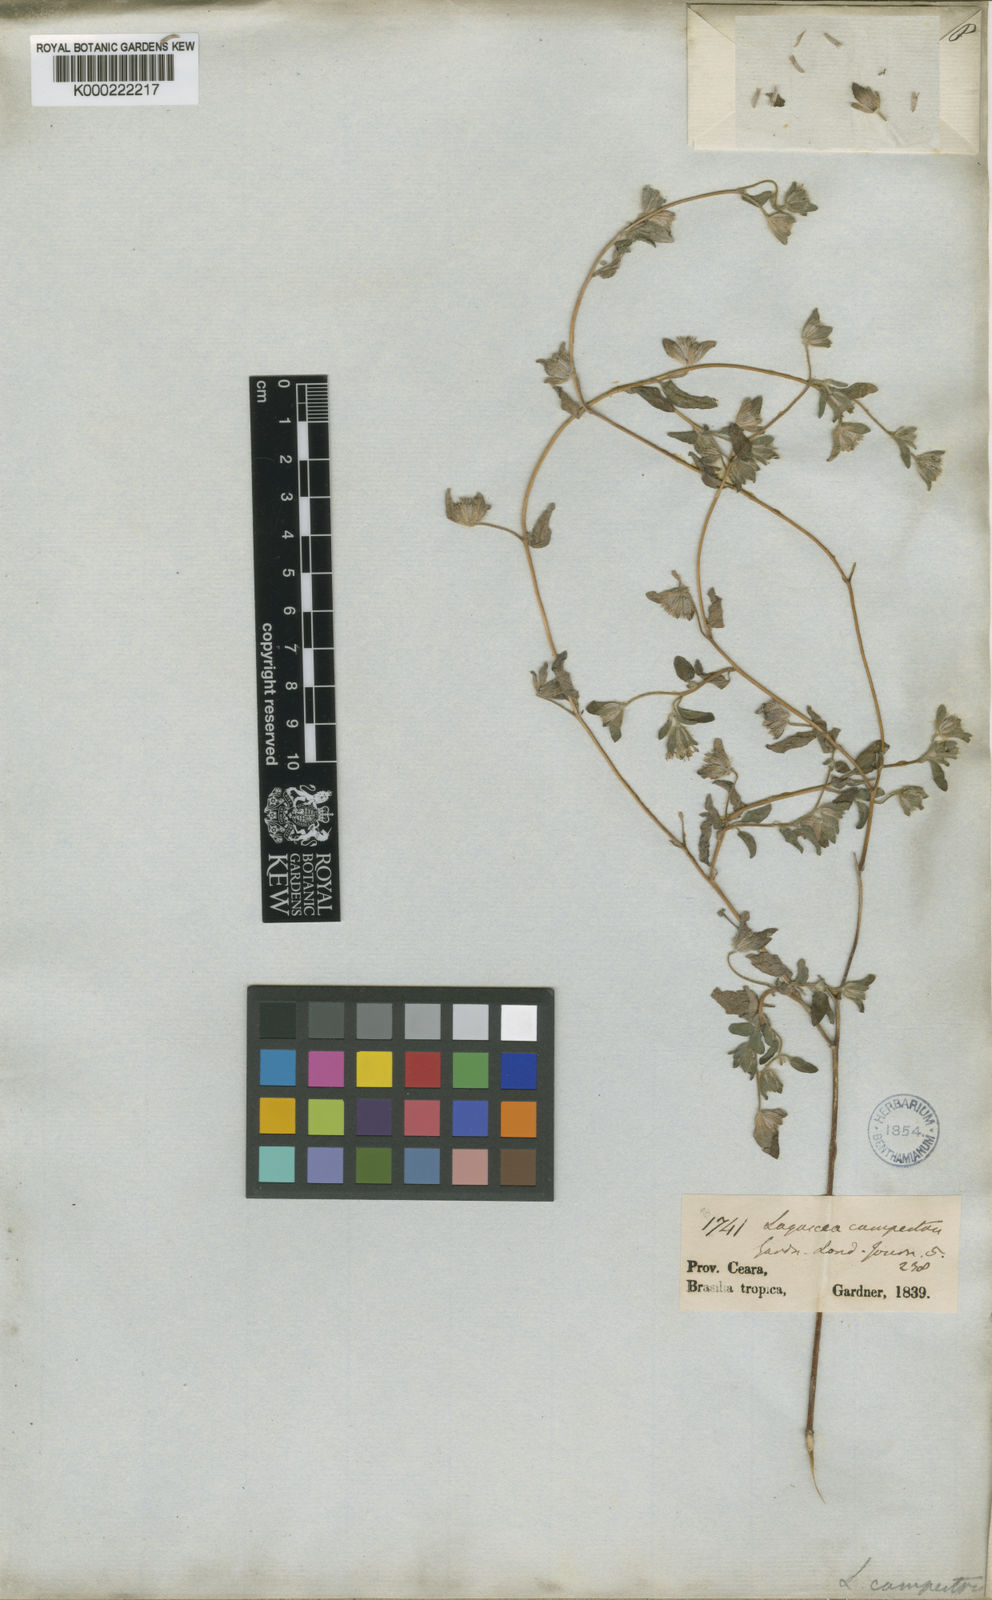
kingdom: Plantae
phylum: Tracheophyta
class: Magnoliopsida
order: Asterales
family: Asteraceae
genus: Lagascea
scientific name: Lagascea mollis
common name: Silkleaf
